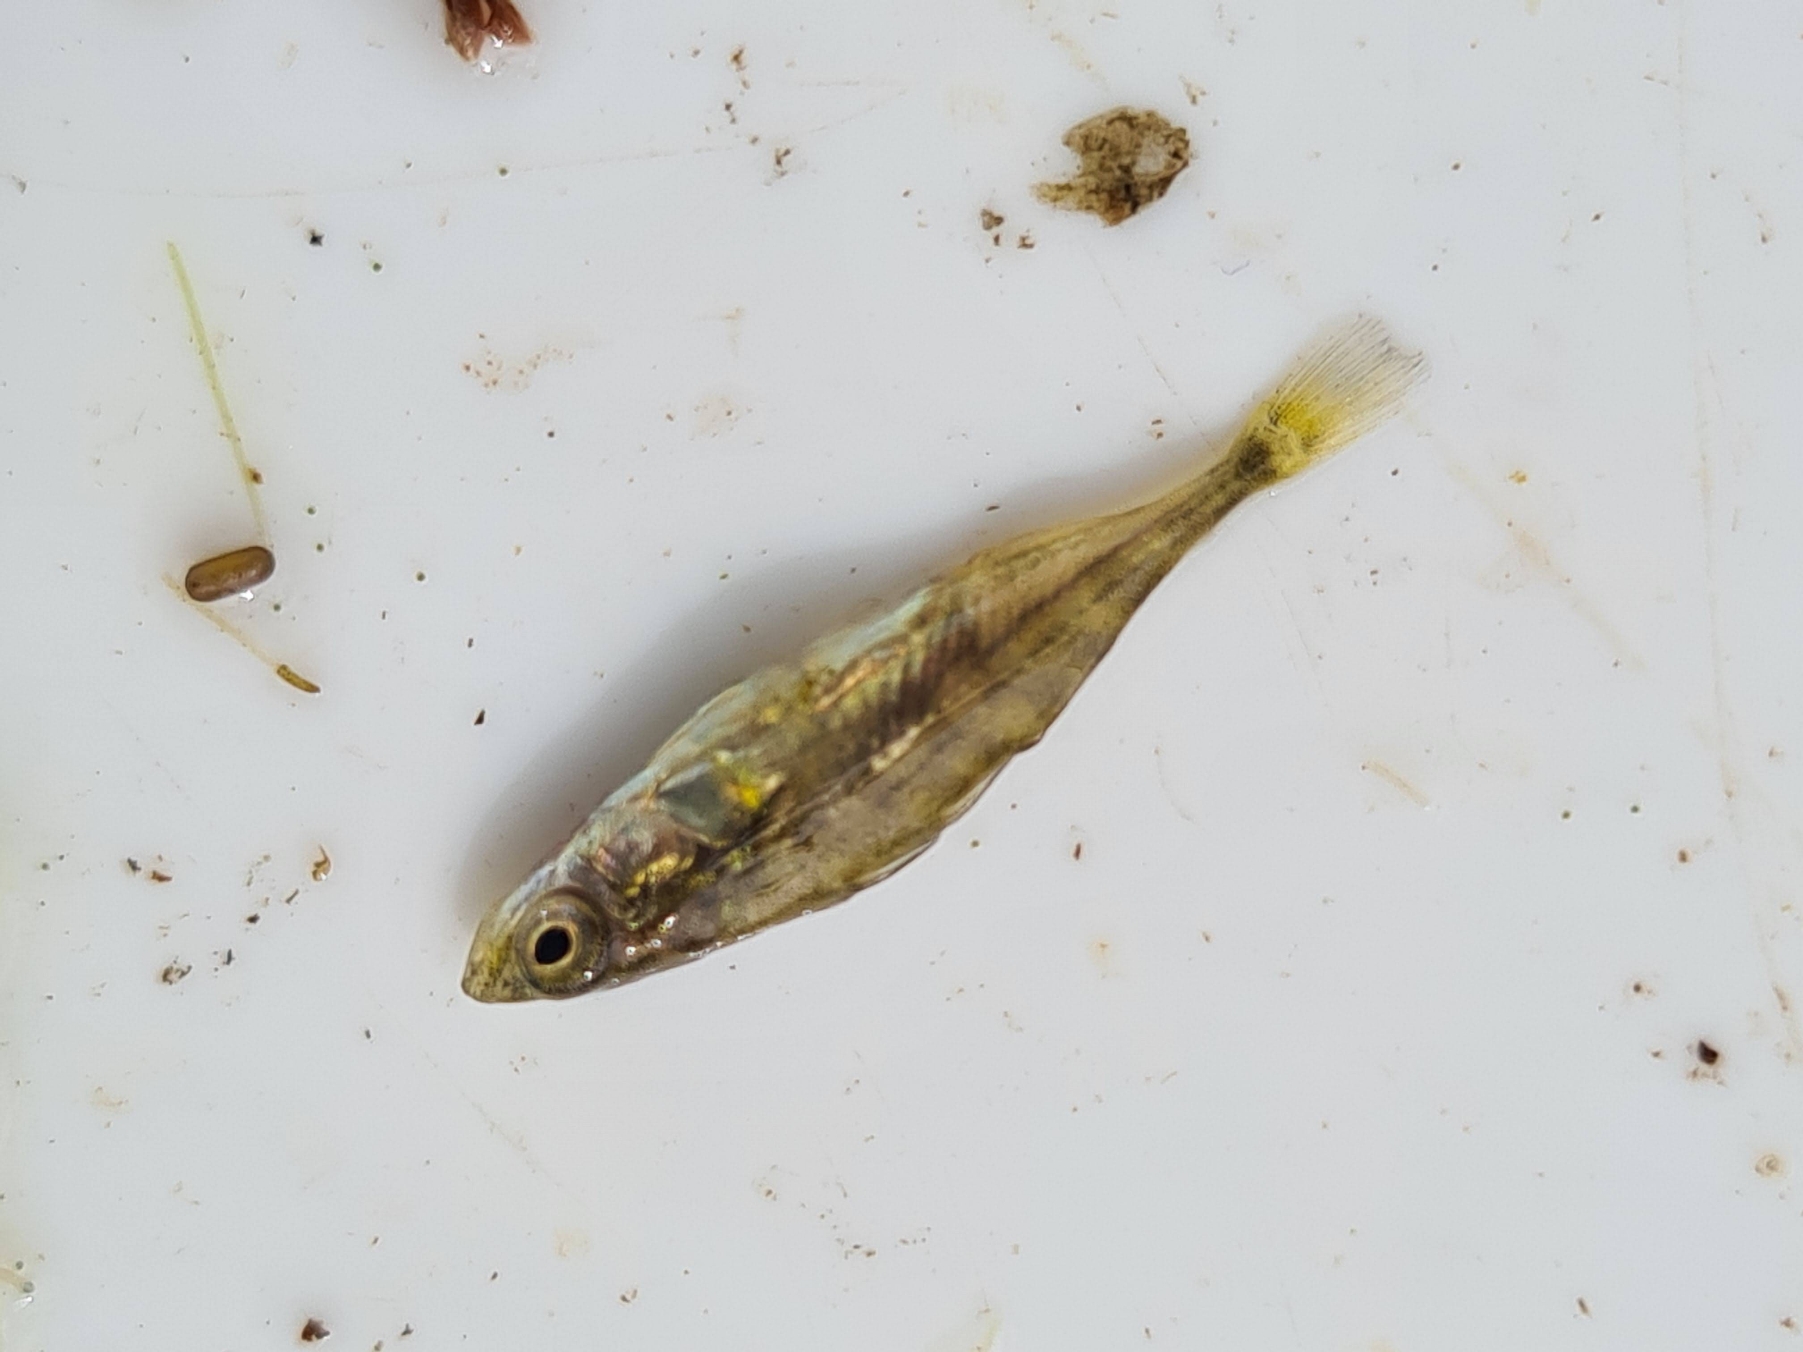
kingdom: Animalia
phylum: Chordata
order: Gasterosteiformes
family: Gasterosteidae
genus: Gasterosteus
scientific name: Gasterosteus aculeatus
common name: Trepigget hundestejle
